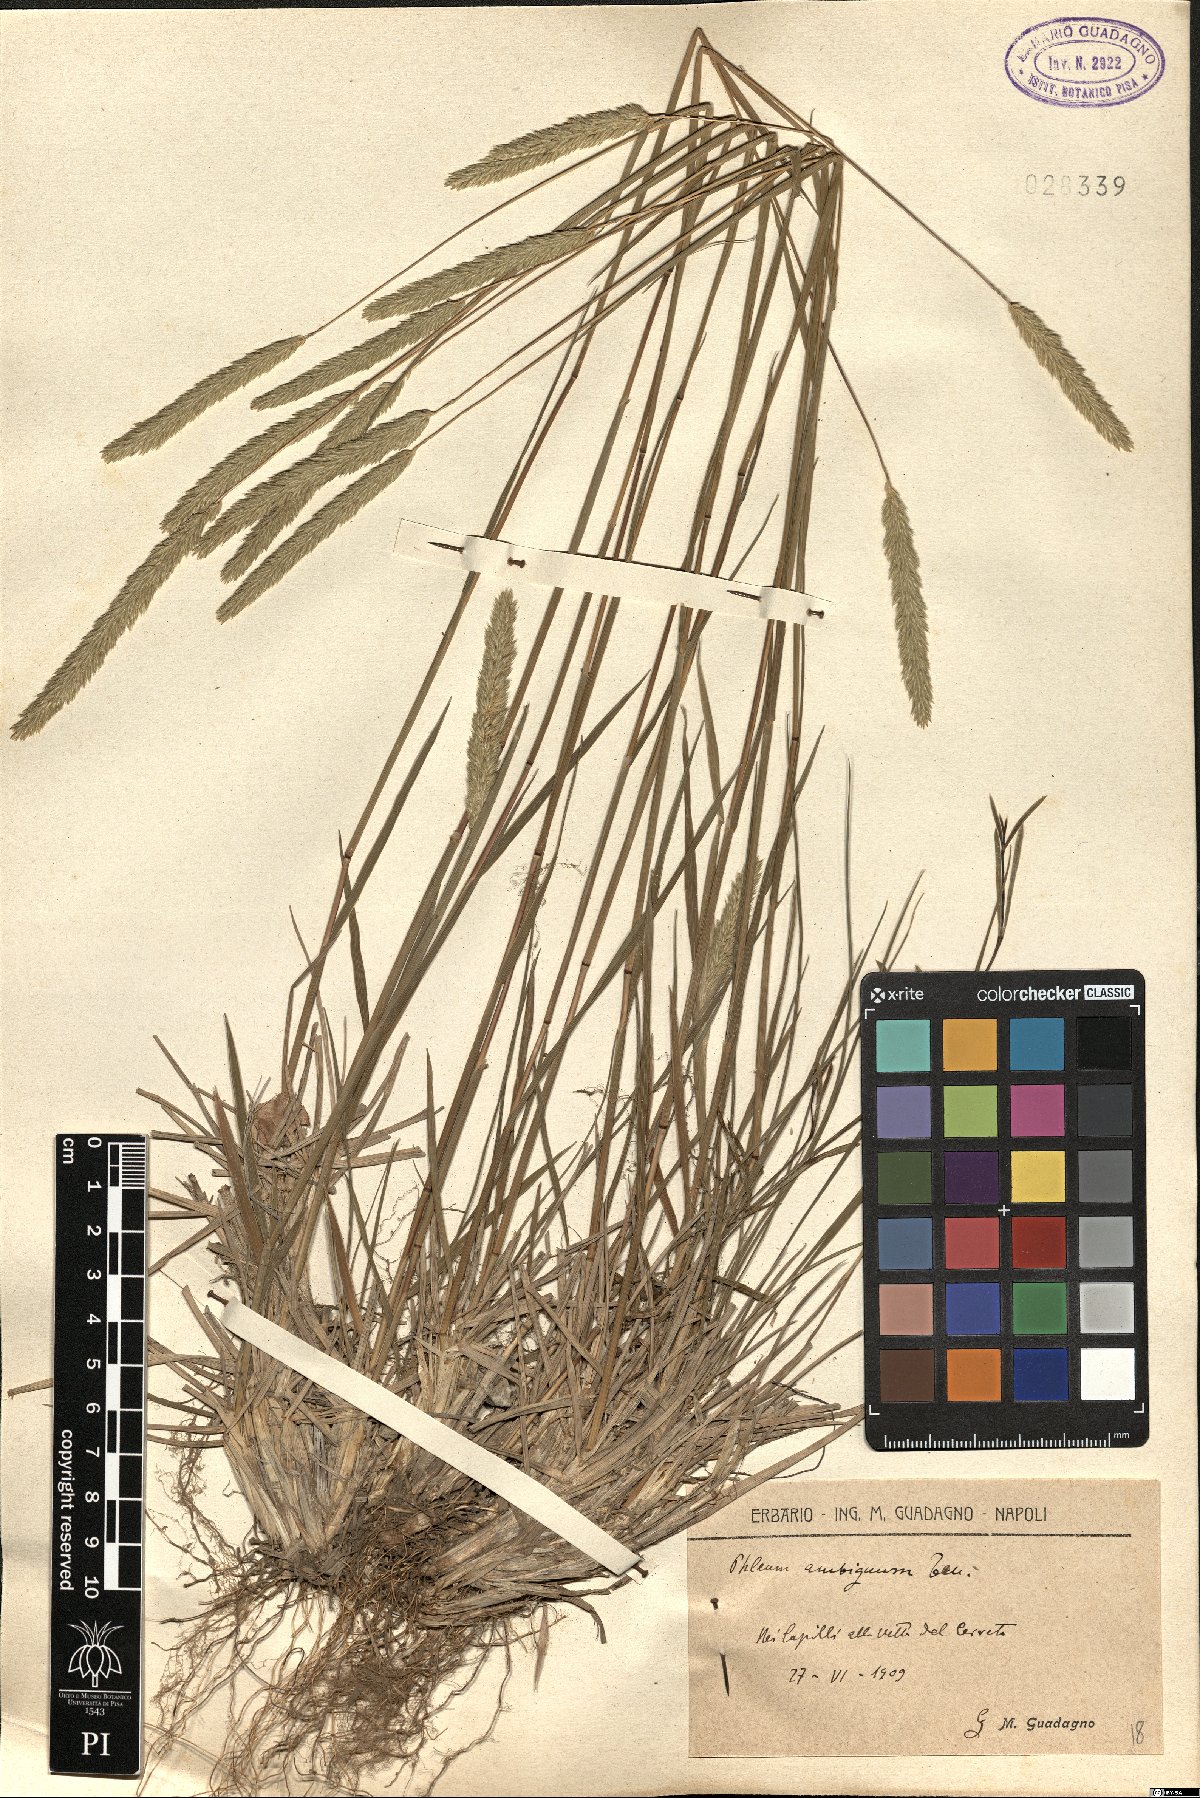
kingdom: Plantae
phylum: Tracheophyta
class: Liliopsida
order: Poales
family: Poaceae
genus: Phleum
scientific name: Phleum hirsutum
